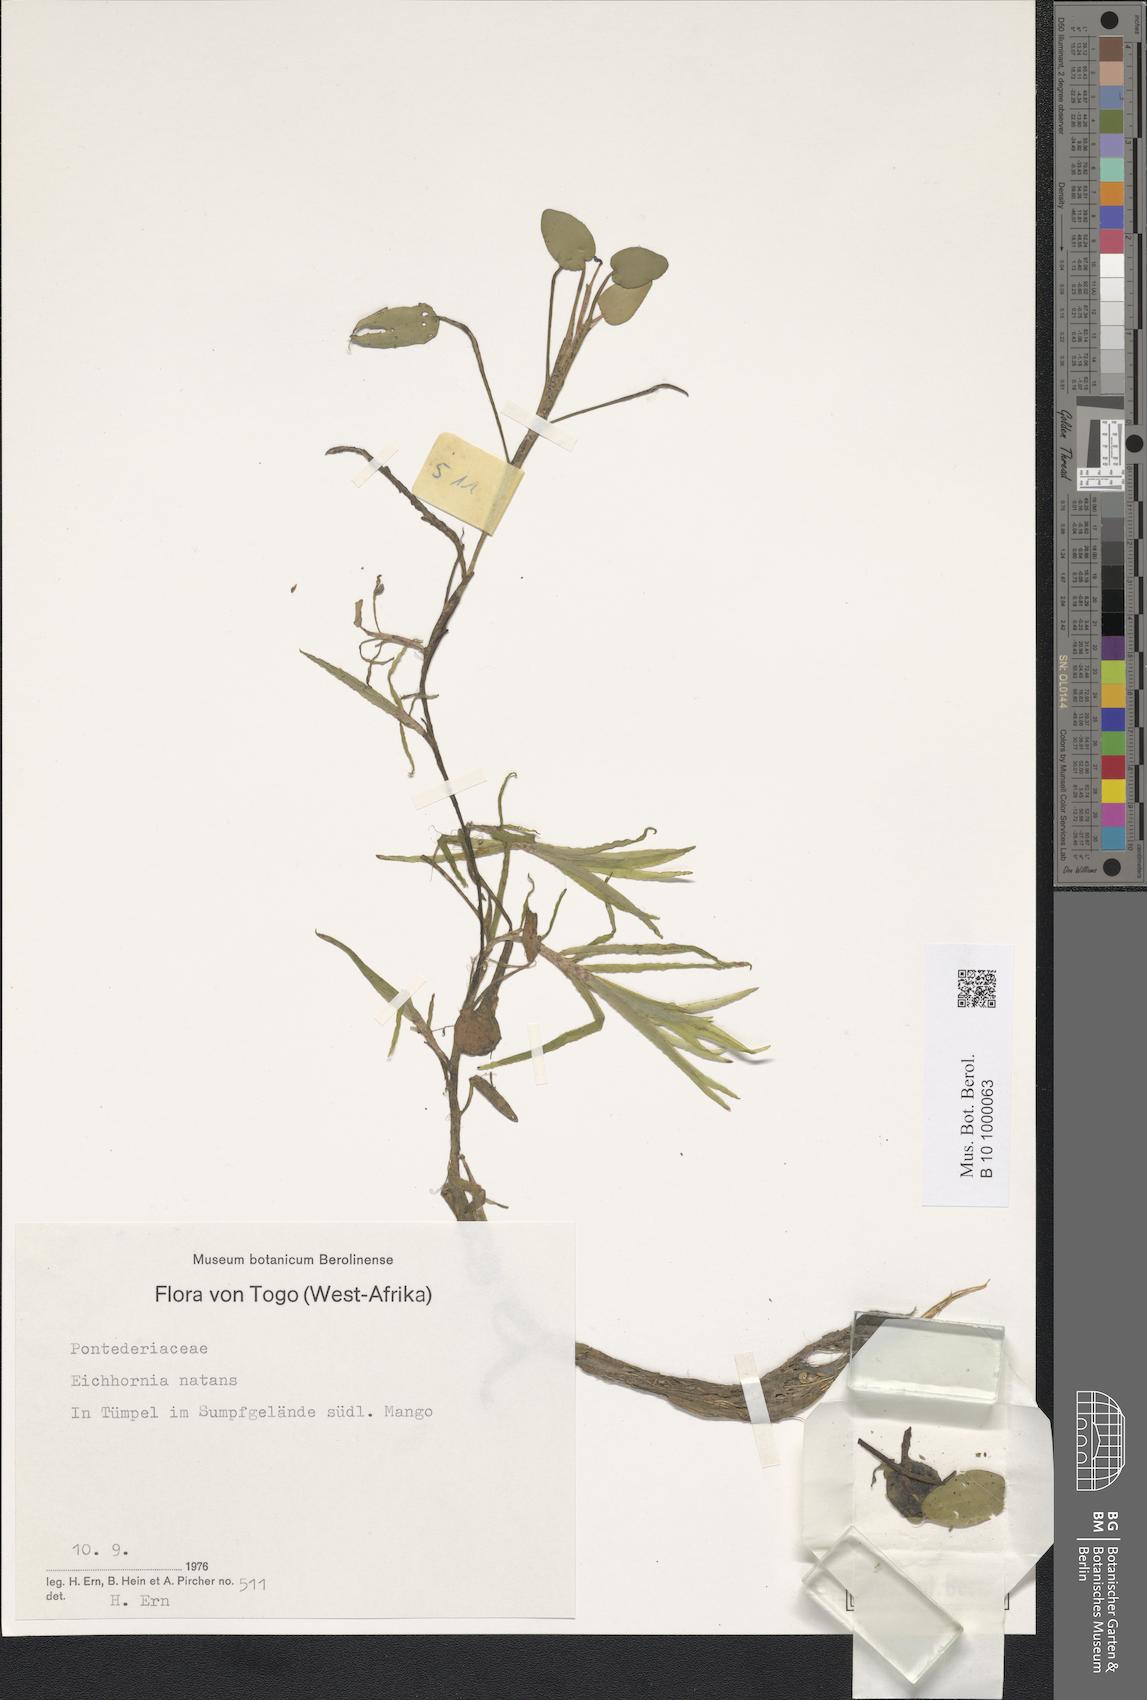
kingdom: Plantae
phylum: Tracheophyta
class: Liliopsida
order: Commelinales
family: Pontederiaceae
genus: Pontederia
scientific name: Pontederia natans
